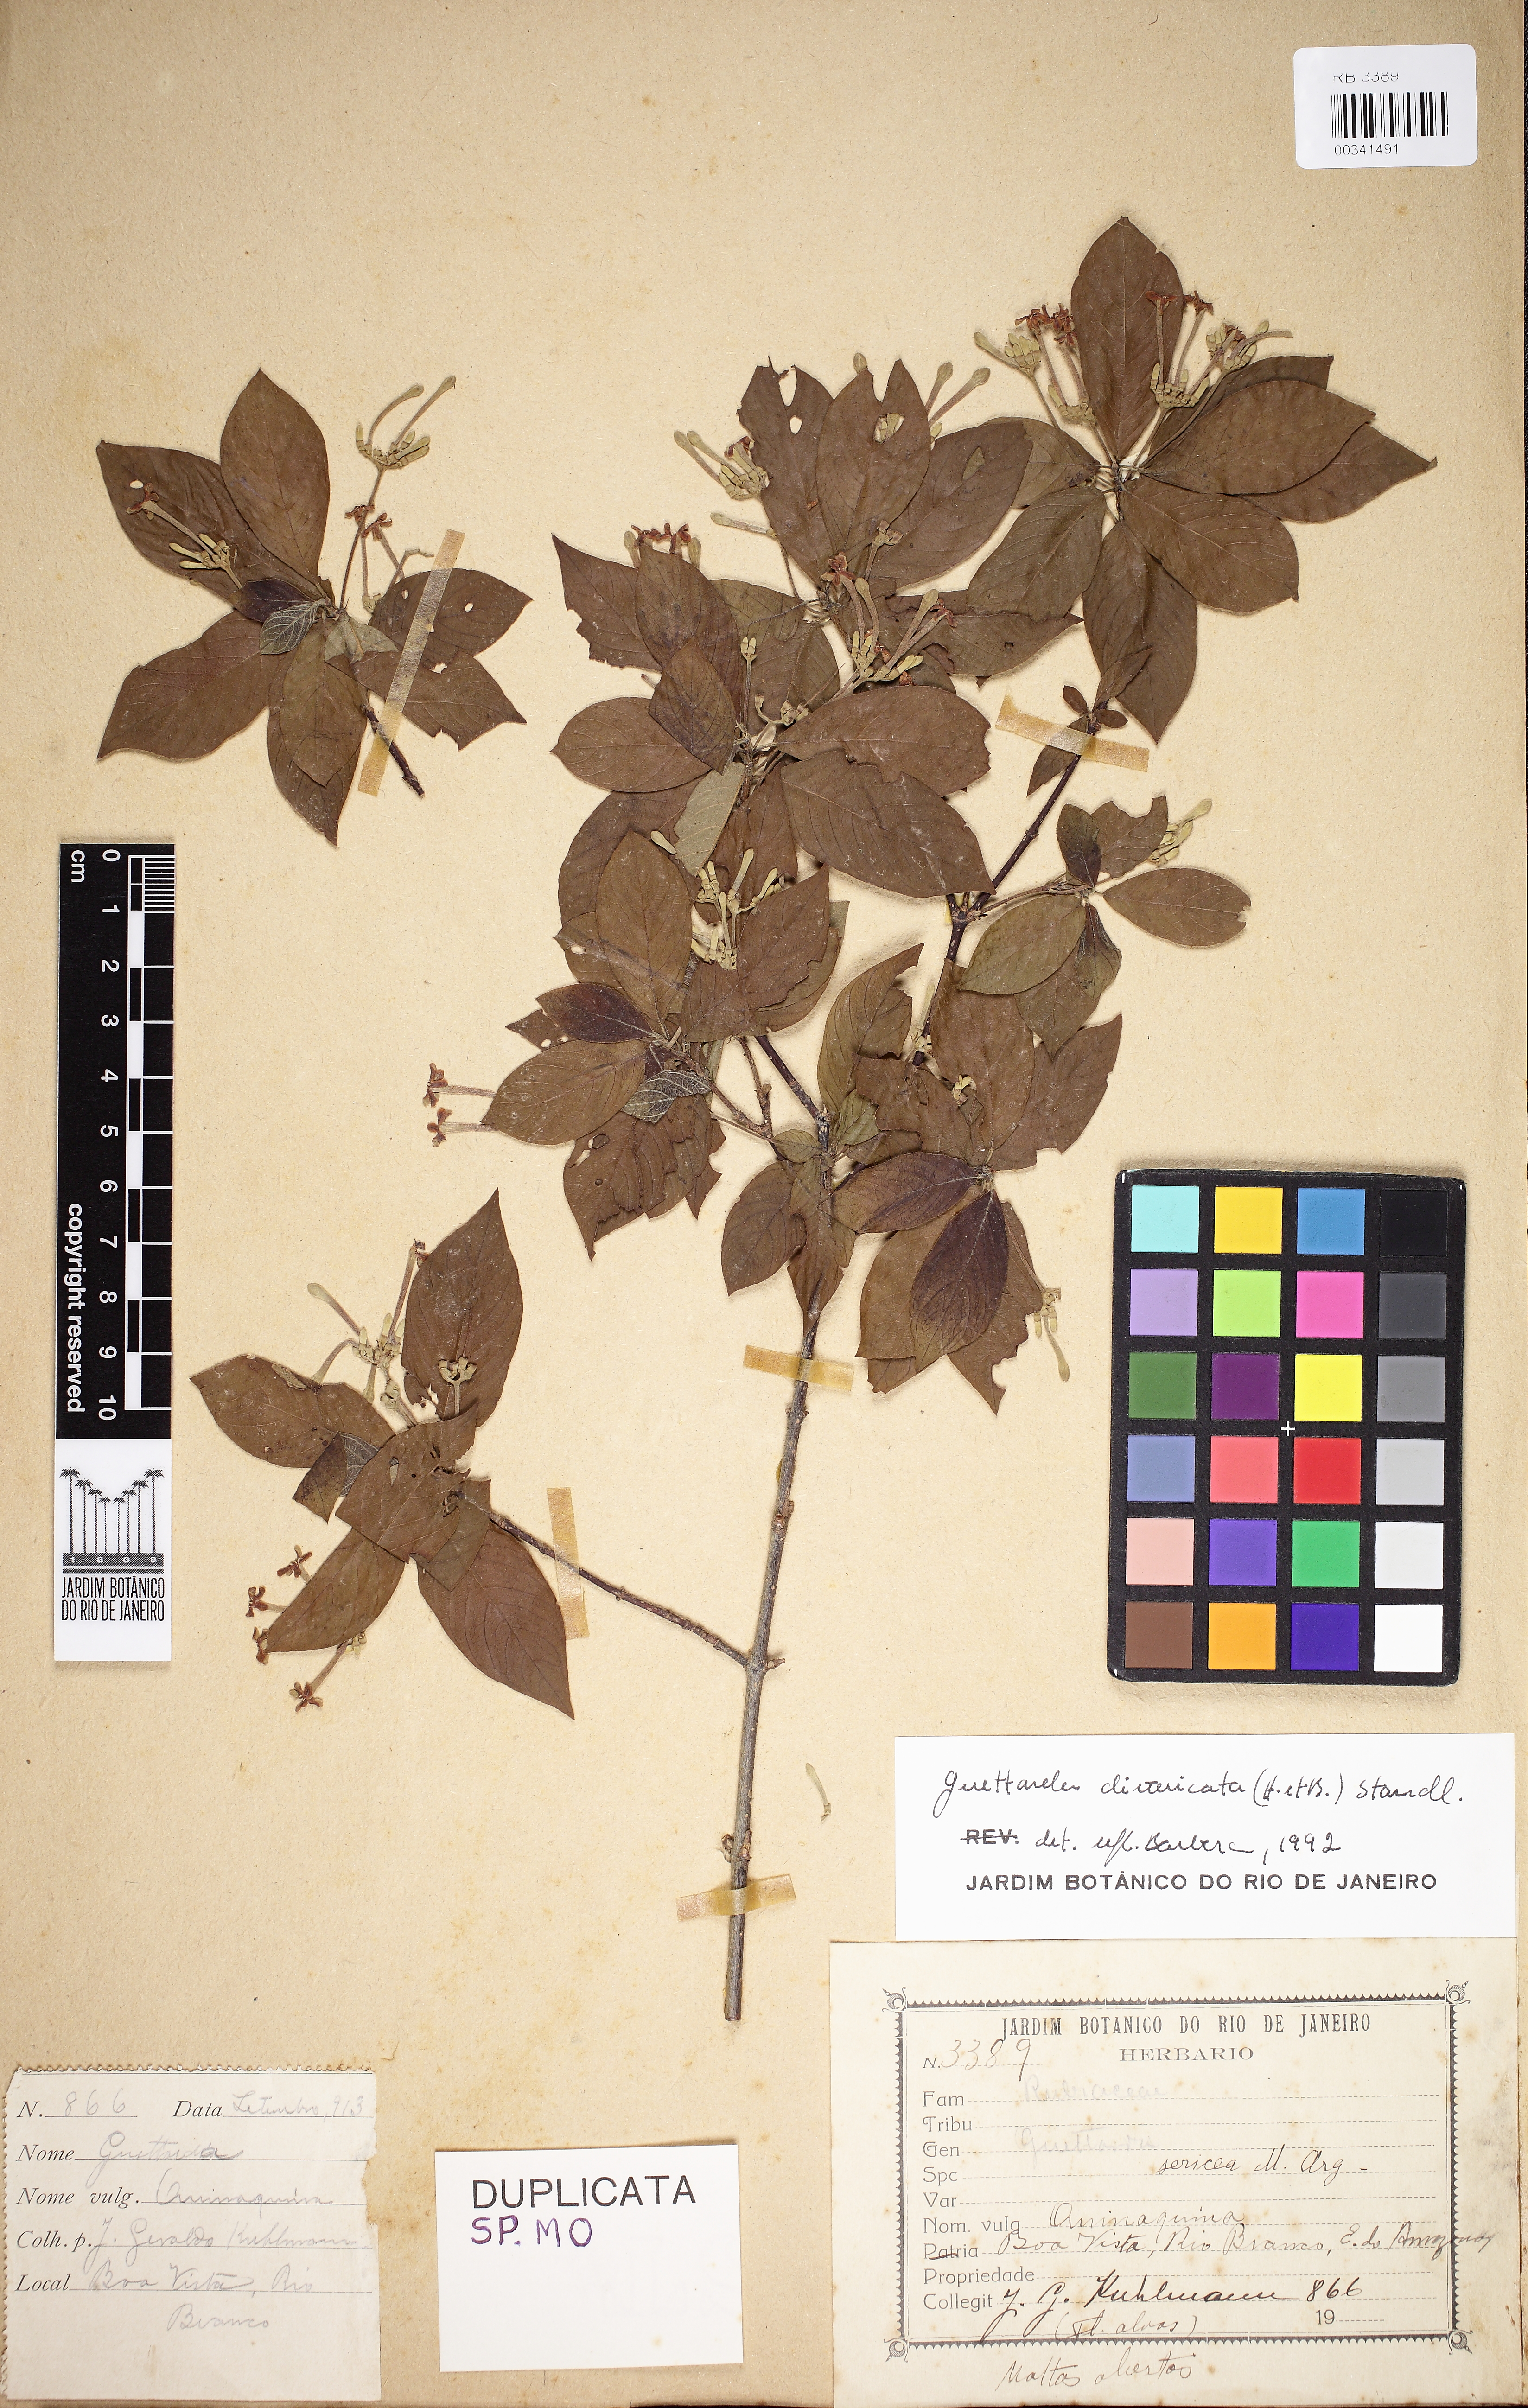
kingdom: Plantae
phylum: Tracheophyta
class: Magnoliopsida
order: Gentianales
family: Rubiaceae
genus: Guettarda
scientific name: Guettarda divaricata
